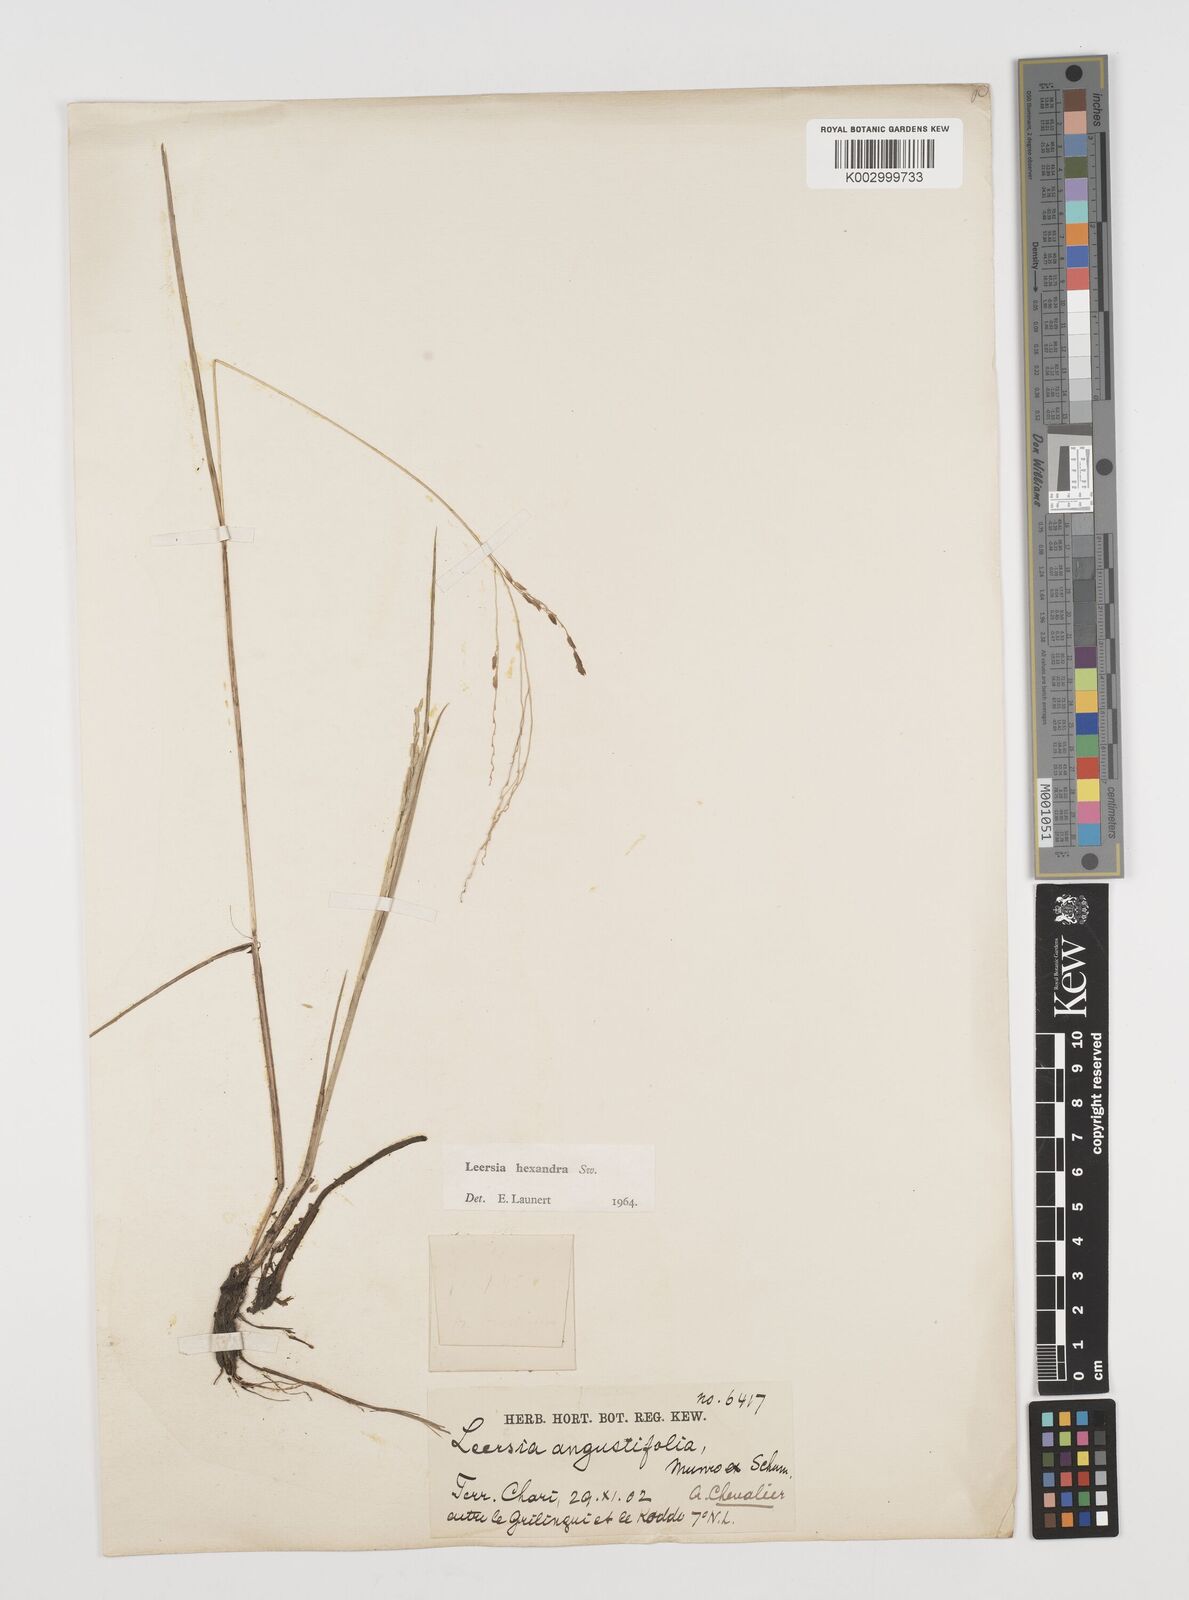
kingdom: Plantae
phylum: Tracheophyta
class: Liliopsida
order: Poales
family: Poaceae
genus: Leersia
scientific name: Leersia hexandra
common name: Southern cut grass
